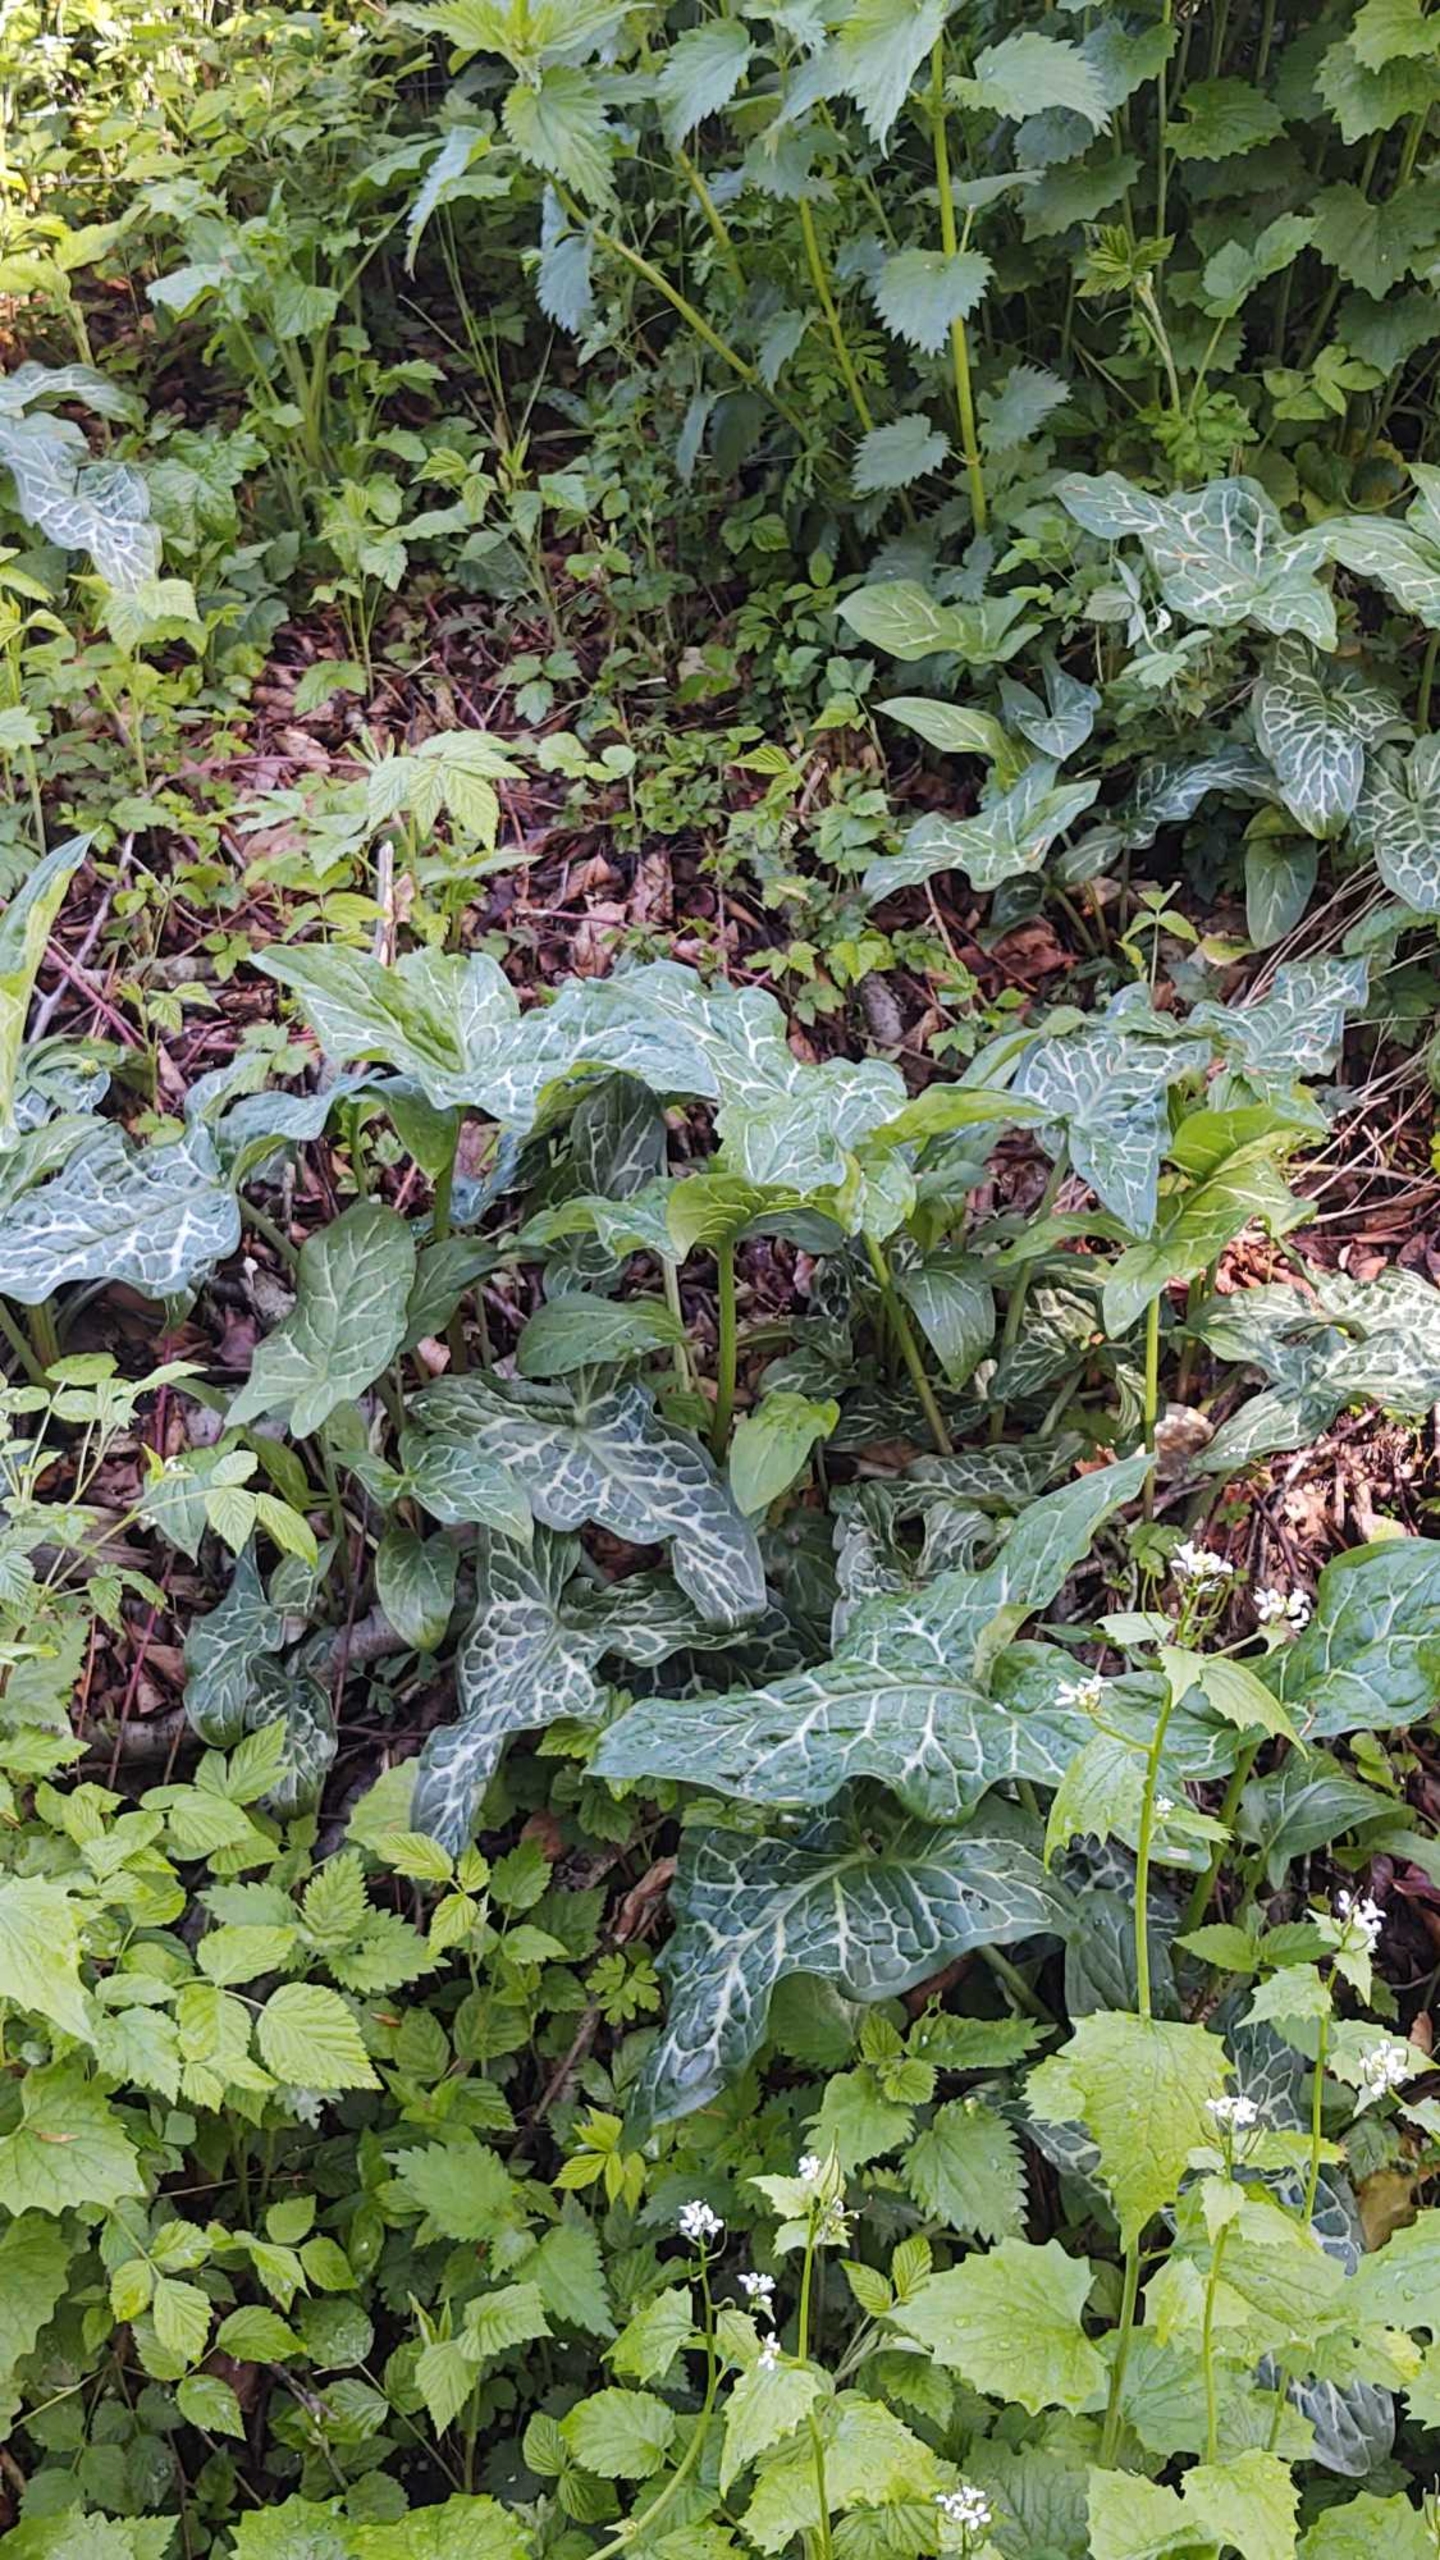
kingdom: Plantae
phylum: Tracheophyta
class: Liliopsida
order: Alismatales
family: Araceae
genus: Arum
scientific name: Arum italicum
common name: Italiensk arum
